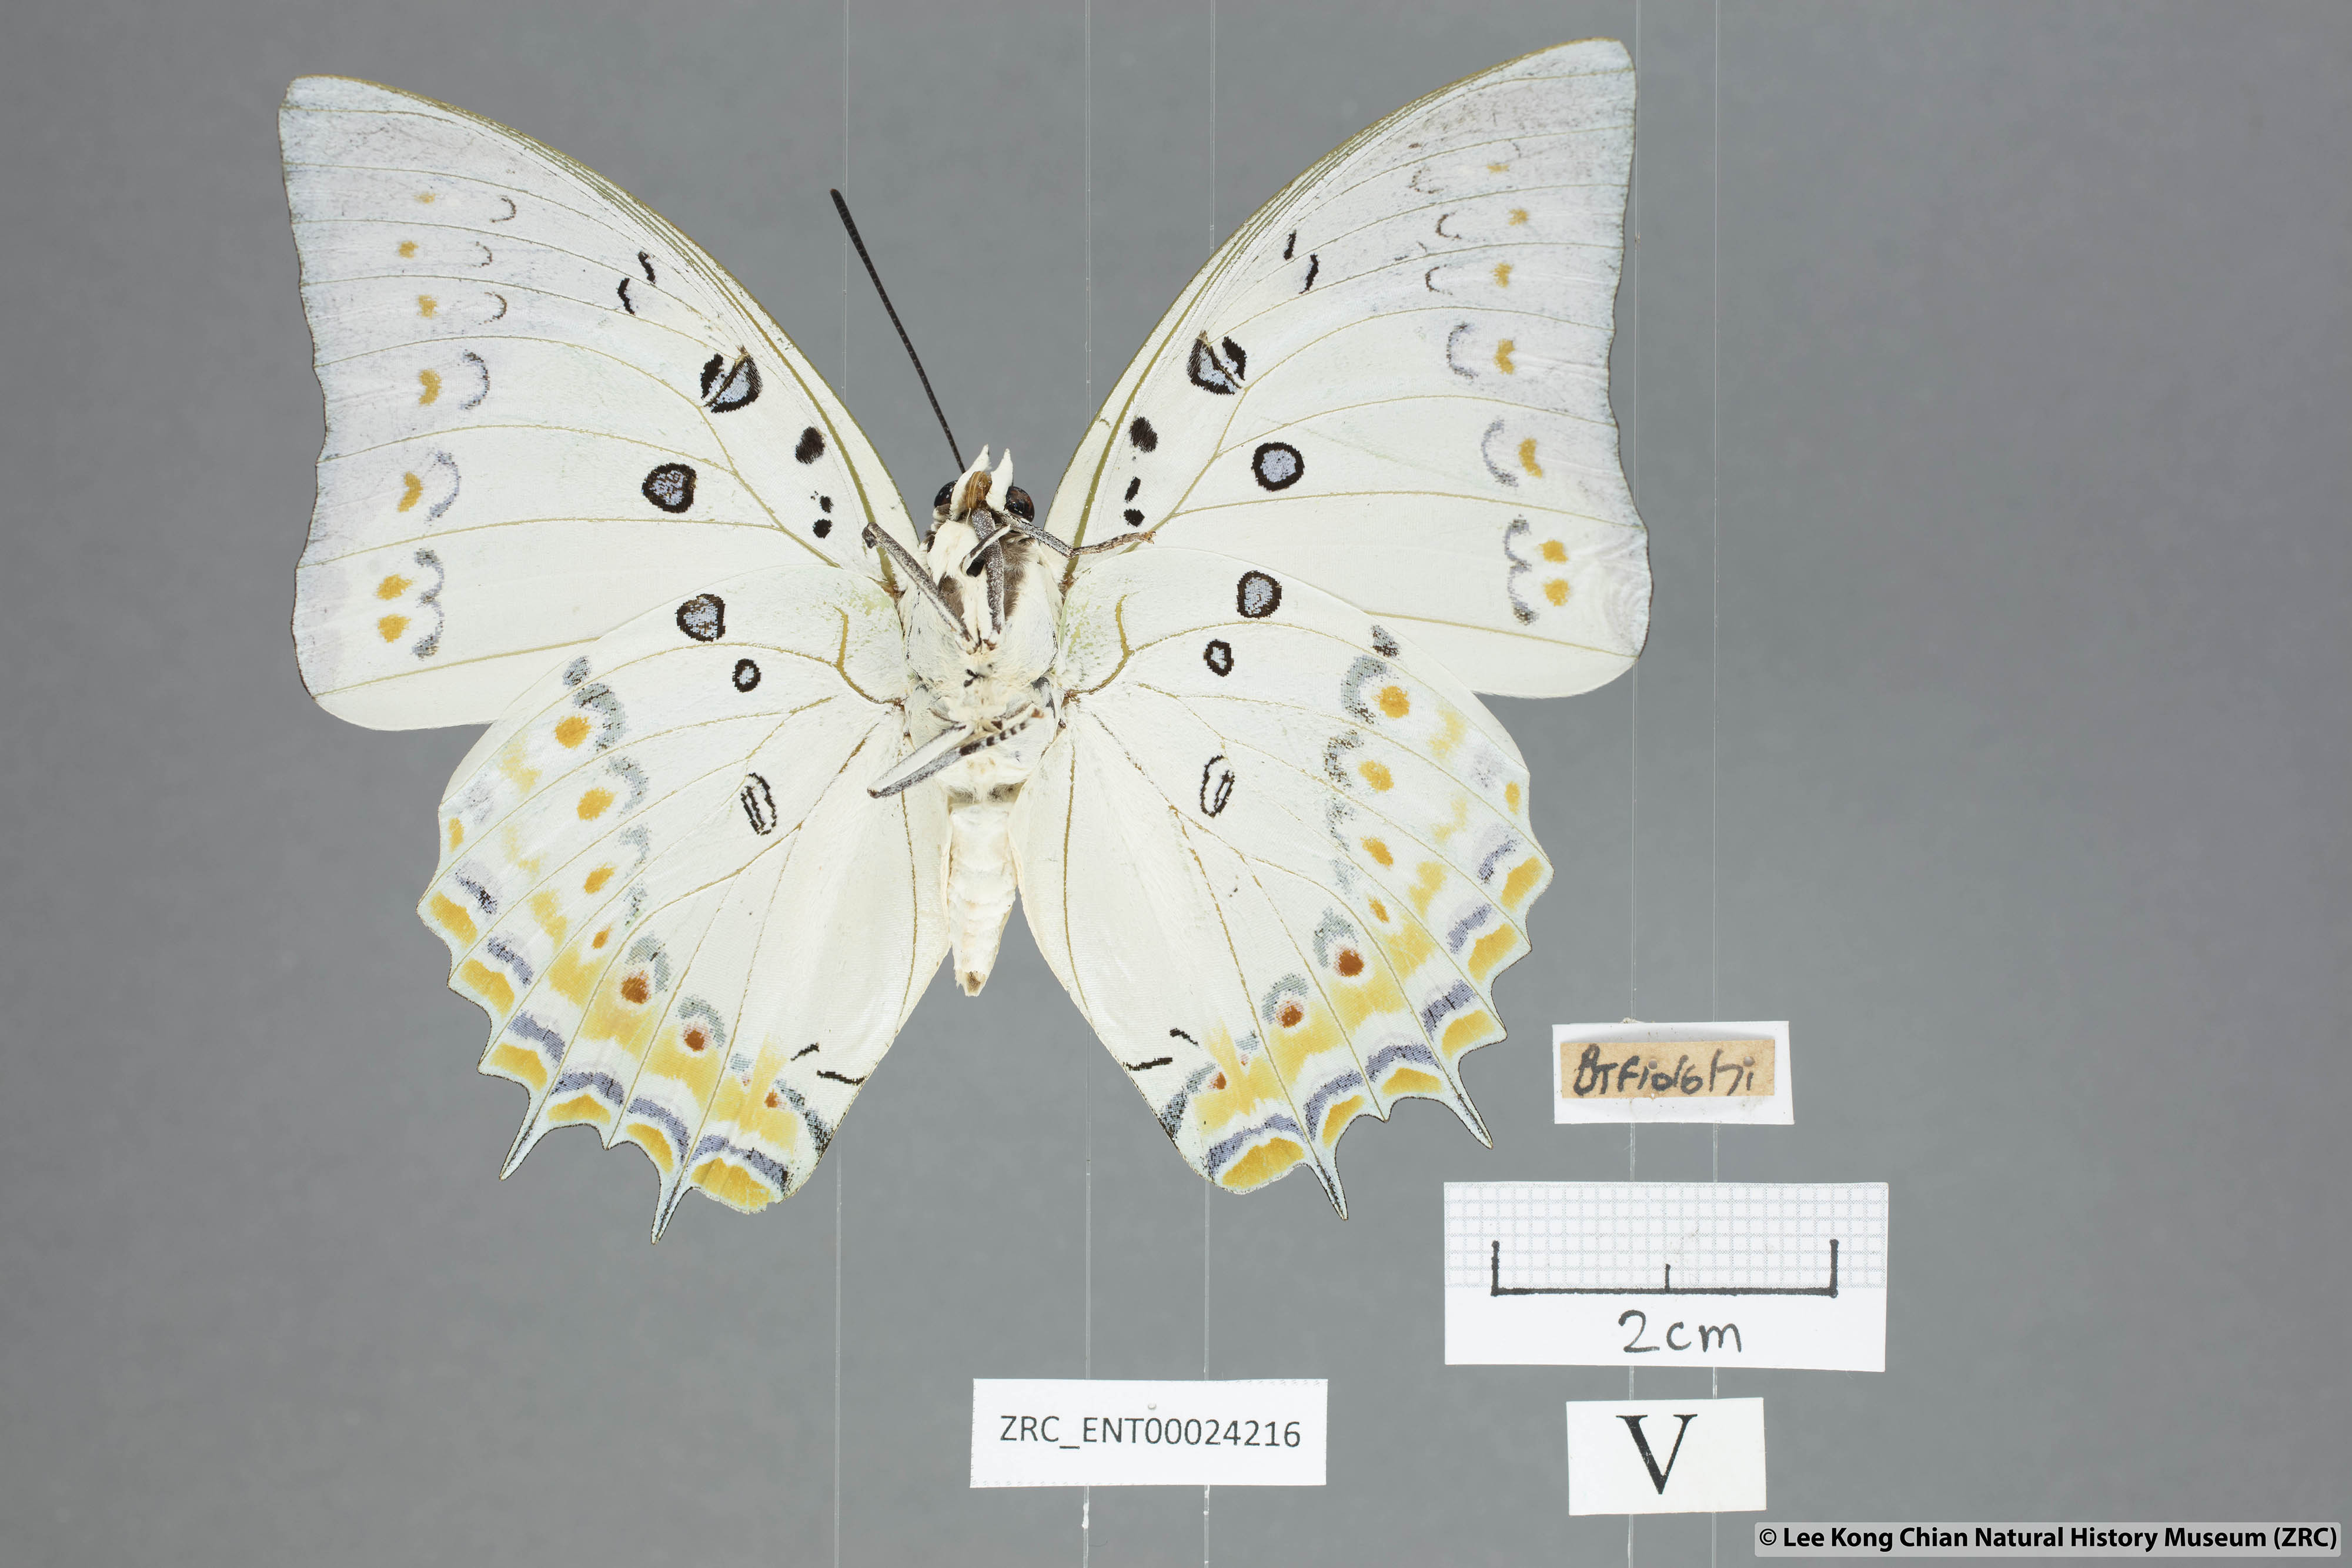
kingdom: Animalia
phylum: Arthropoda
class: Insecta
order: Lepidoptera
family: Nymphalidae
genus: Polyura
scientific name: Polyura delphis
